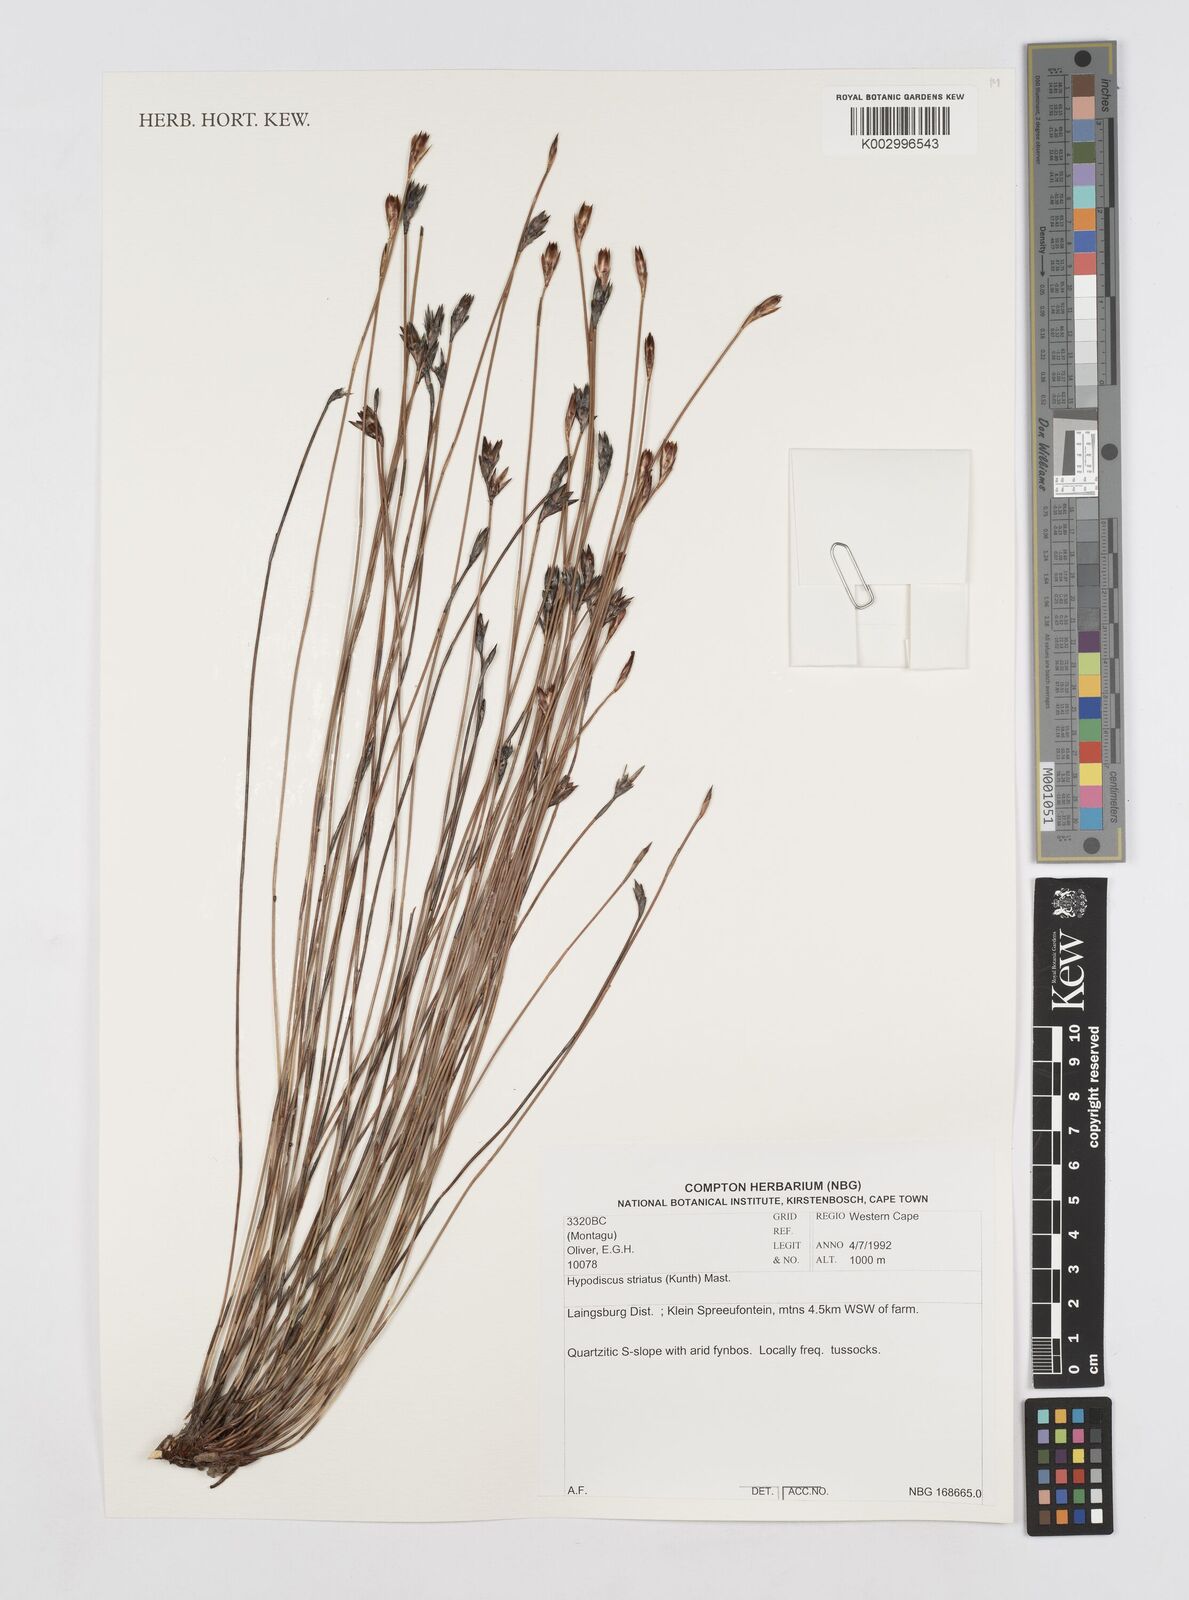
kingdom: Plantae
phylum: Tracheophyta
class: Liliopsida
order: Poales
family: Restionaceae
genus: Hypodiscus
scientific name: Hypodiscus striatus
